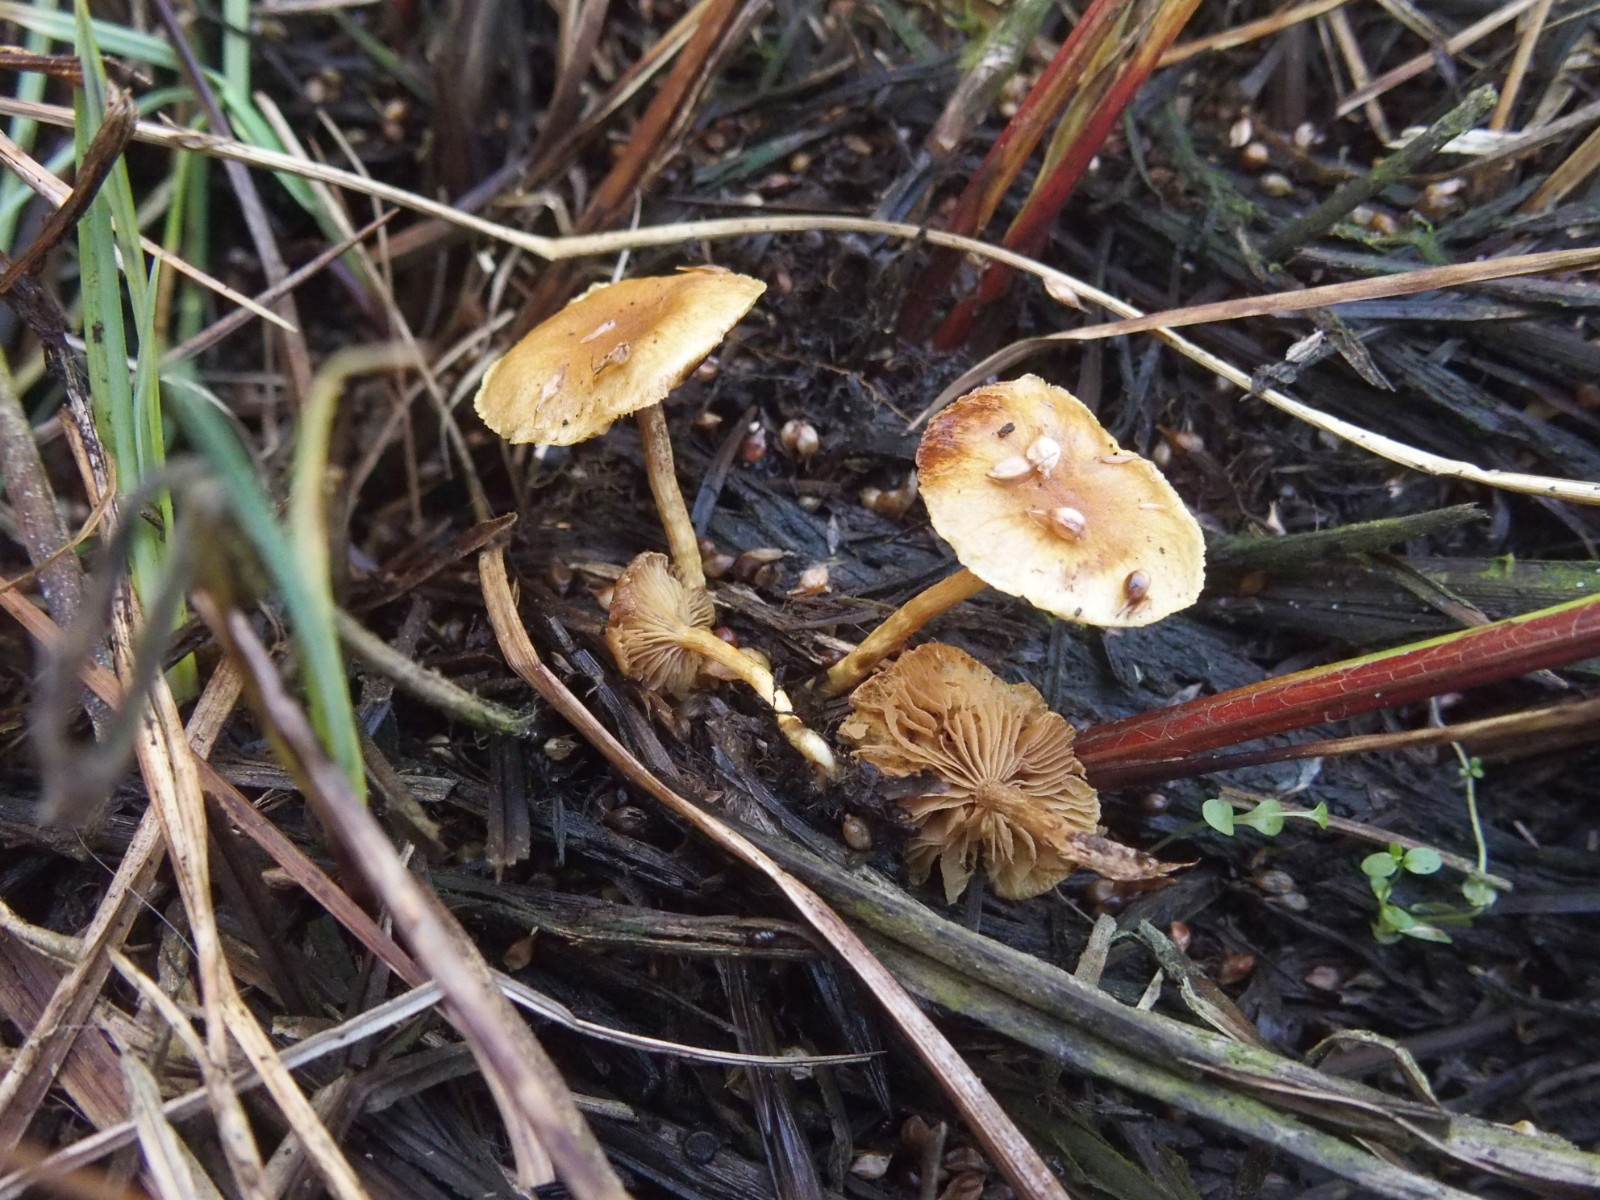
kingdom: Fungi
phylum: Basidiomycota
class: Agaricomycetes
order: Agaricales
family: Strophariaceae
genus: Pholiota
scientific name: Pholiota conissans
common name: pile-skælhat
